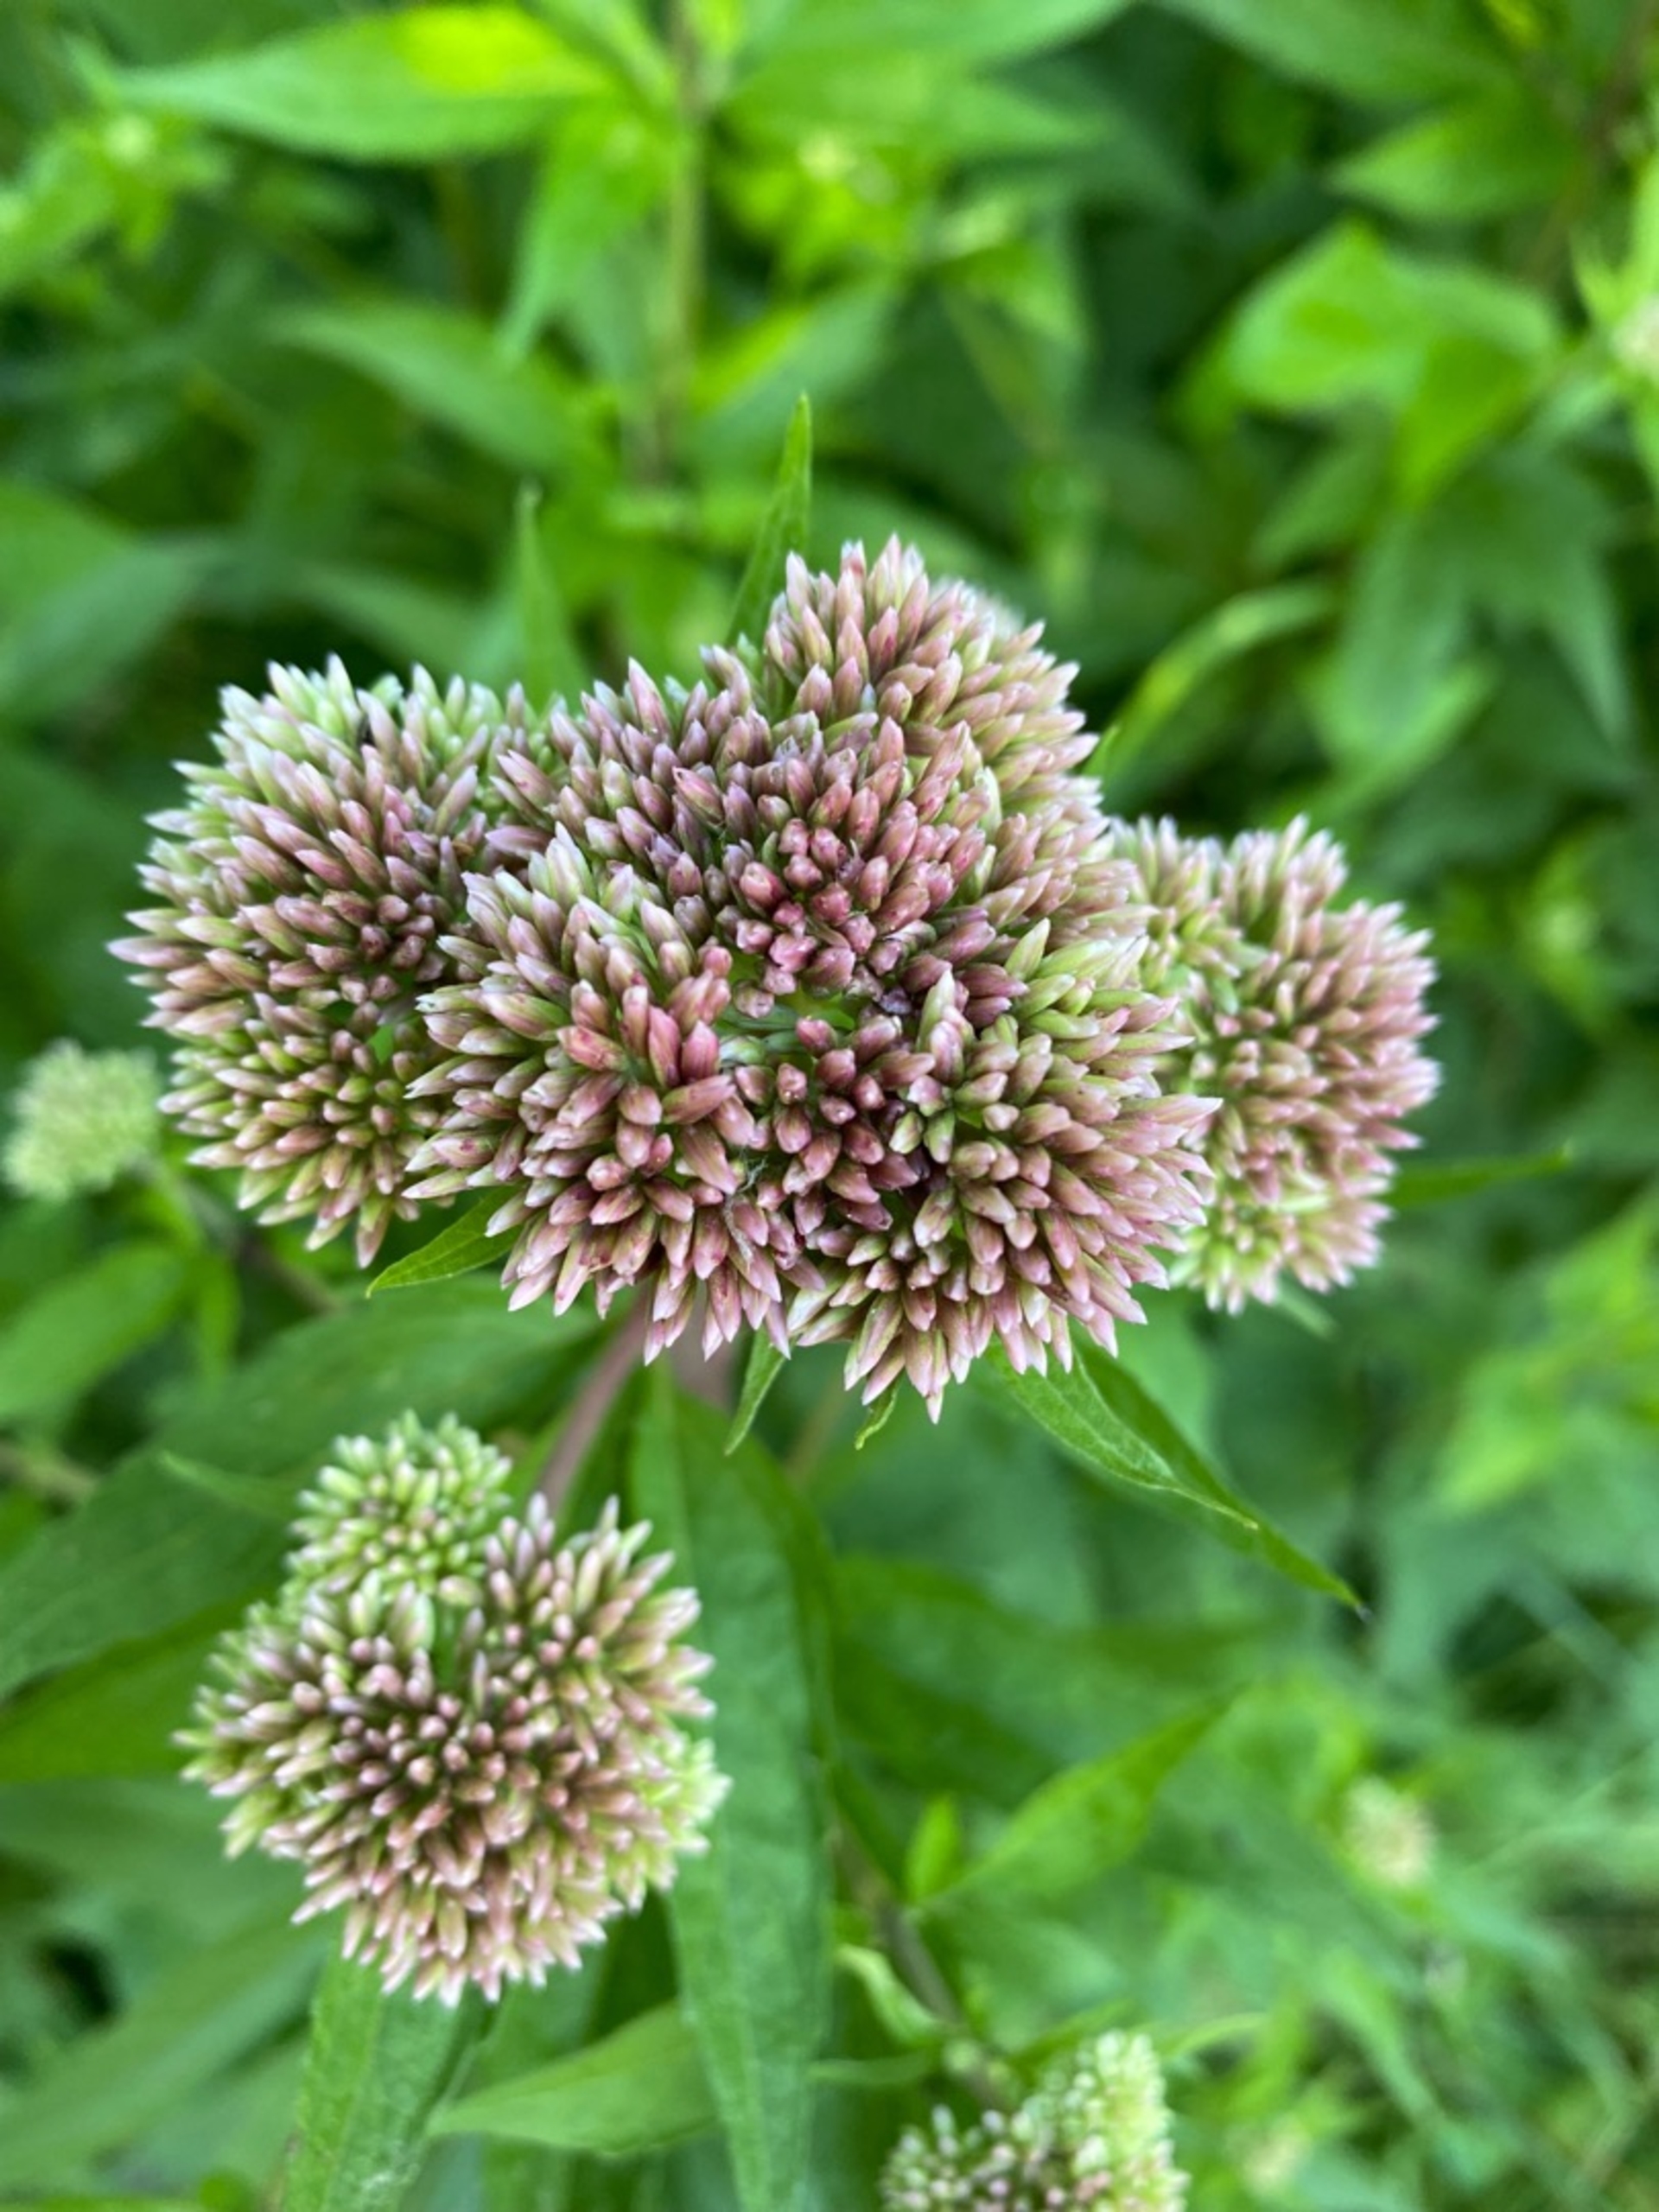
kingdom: Plantae
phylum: Tracheophyta
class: Magnoliopsida
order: Asterales
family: Asteraceae
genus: Eupatorium
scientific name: Eupatorium cannabinum
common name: Hjortetrøst
